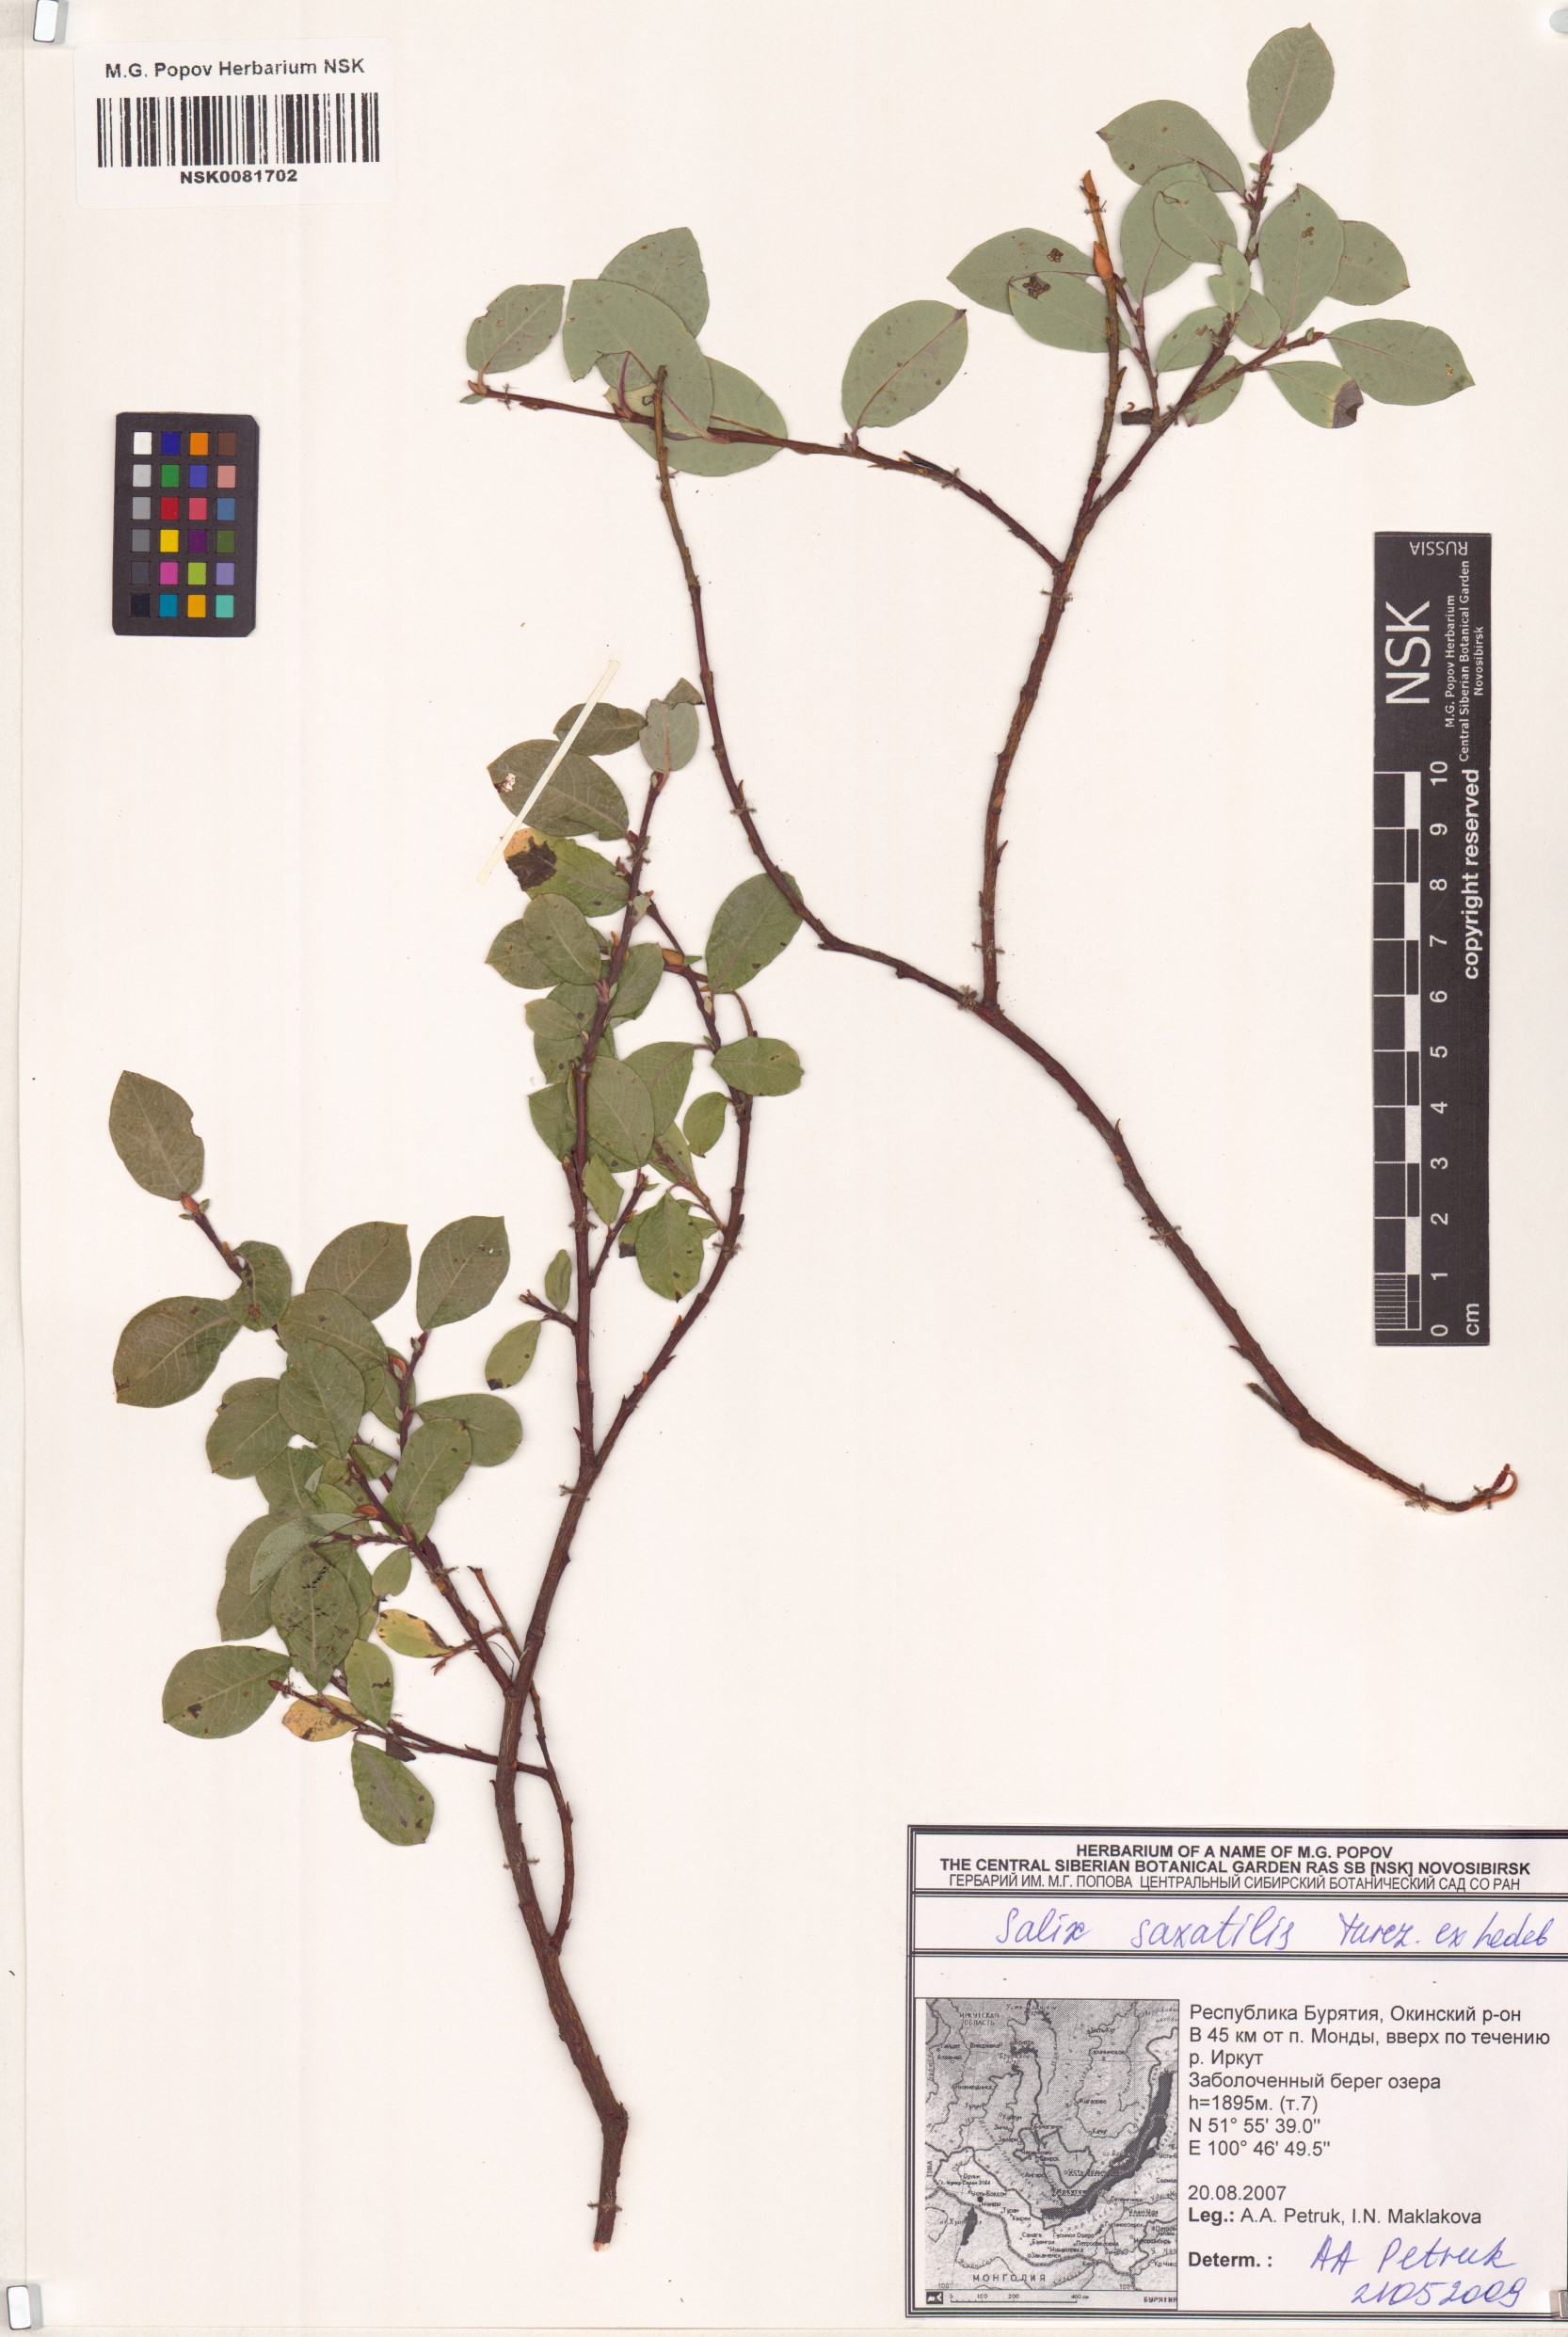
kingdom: Plantae
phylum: Tracheophyta
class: Magnoliopsida
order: Malpighiales
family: Salicaceae
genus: Salix
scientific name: Salix saxatilis
